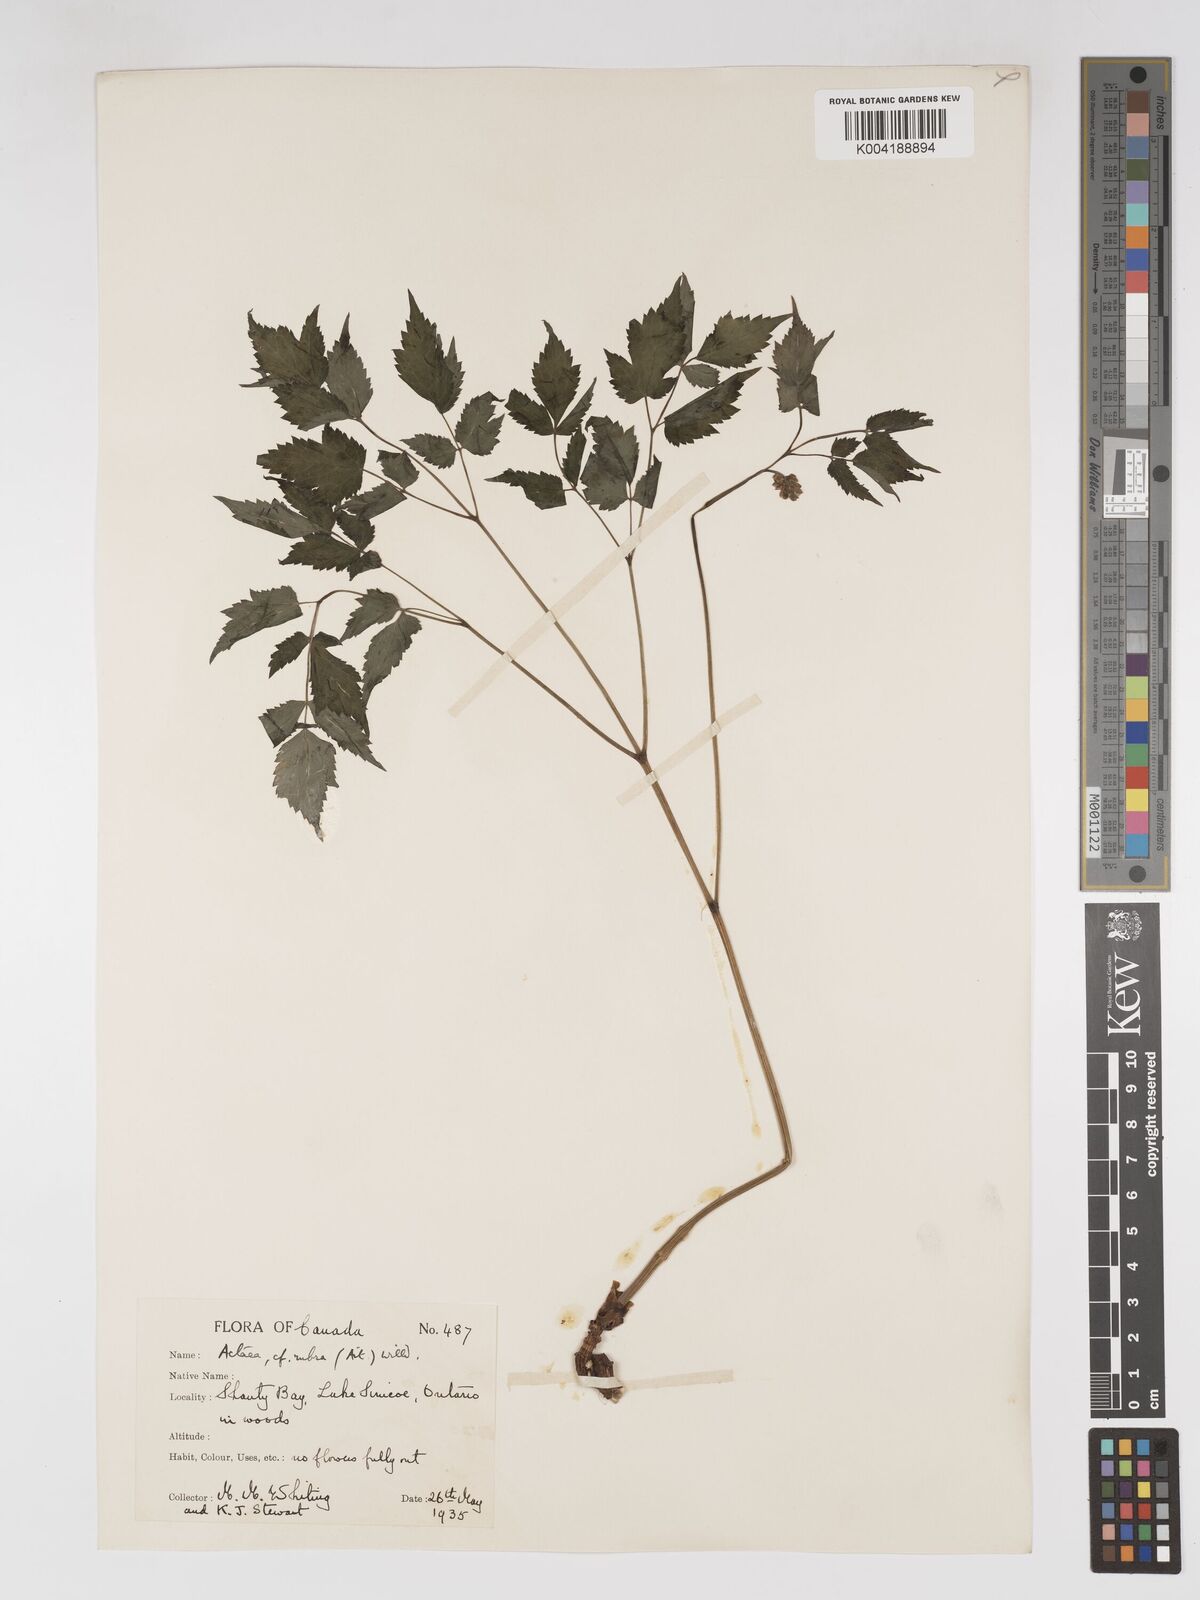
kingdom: Plantae
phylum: Tracheophyta
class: Magnoliopsida
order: Ranunculales
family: Ranunculaceae
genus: Actaea
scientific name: Actaea spicata
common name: Baneberry
